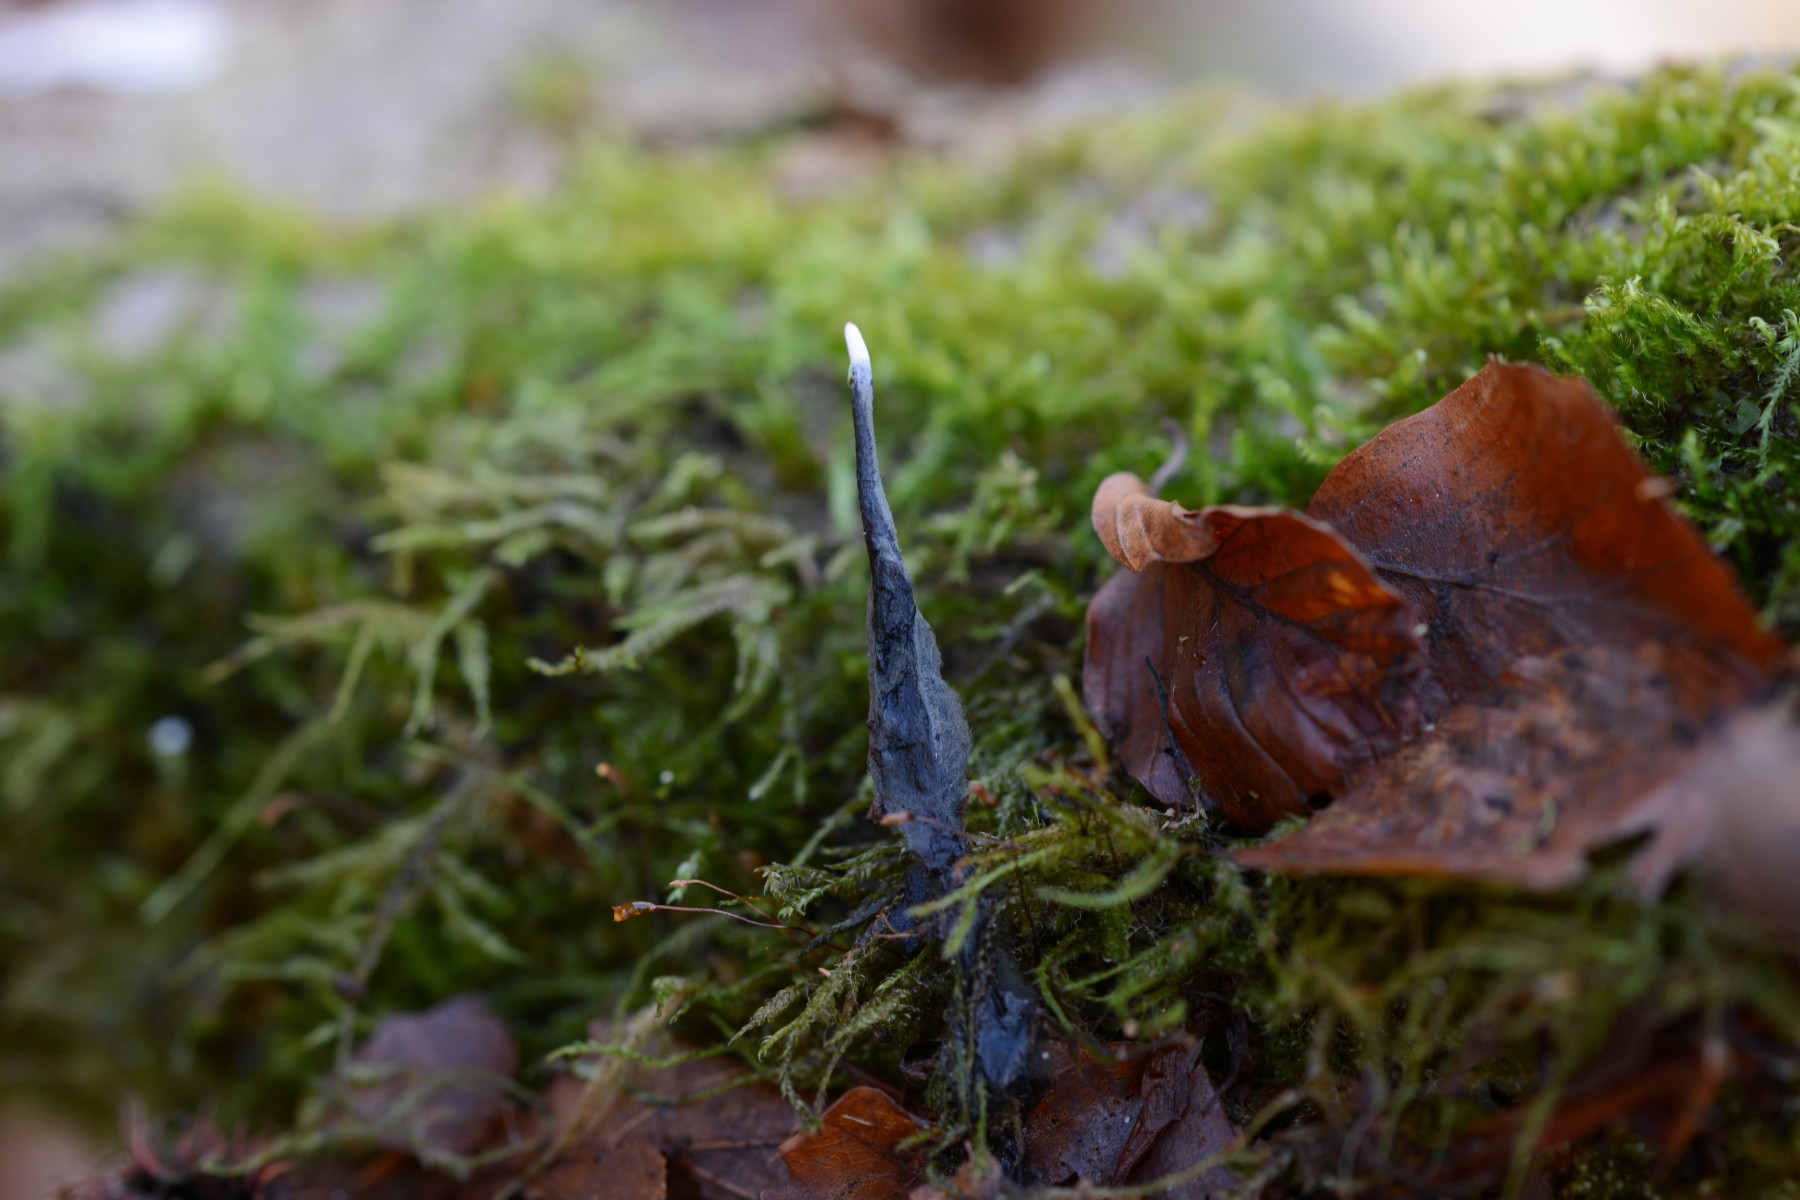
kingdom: Fungi
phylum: Ascomycota
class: Sordariomycetes
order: Xylariales
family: Xylariaceae
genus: Xylaria
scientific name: Xylaria hypoxylon
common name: grenet stødsvamp
